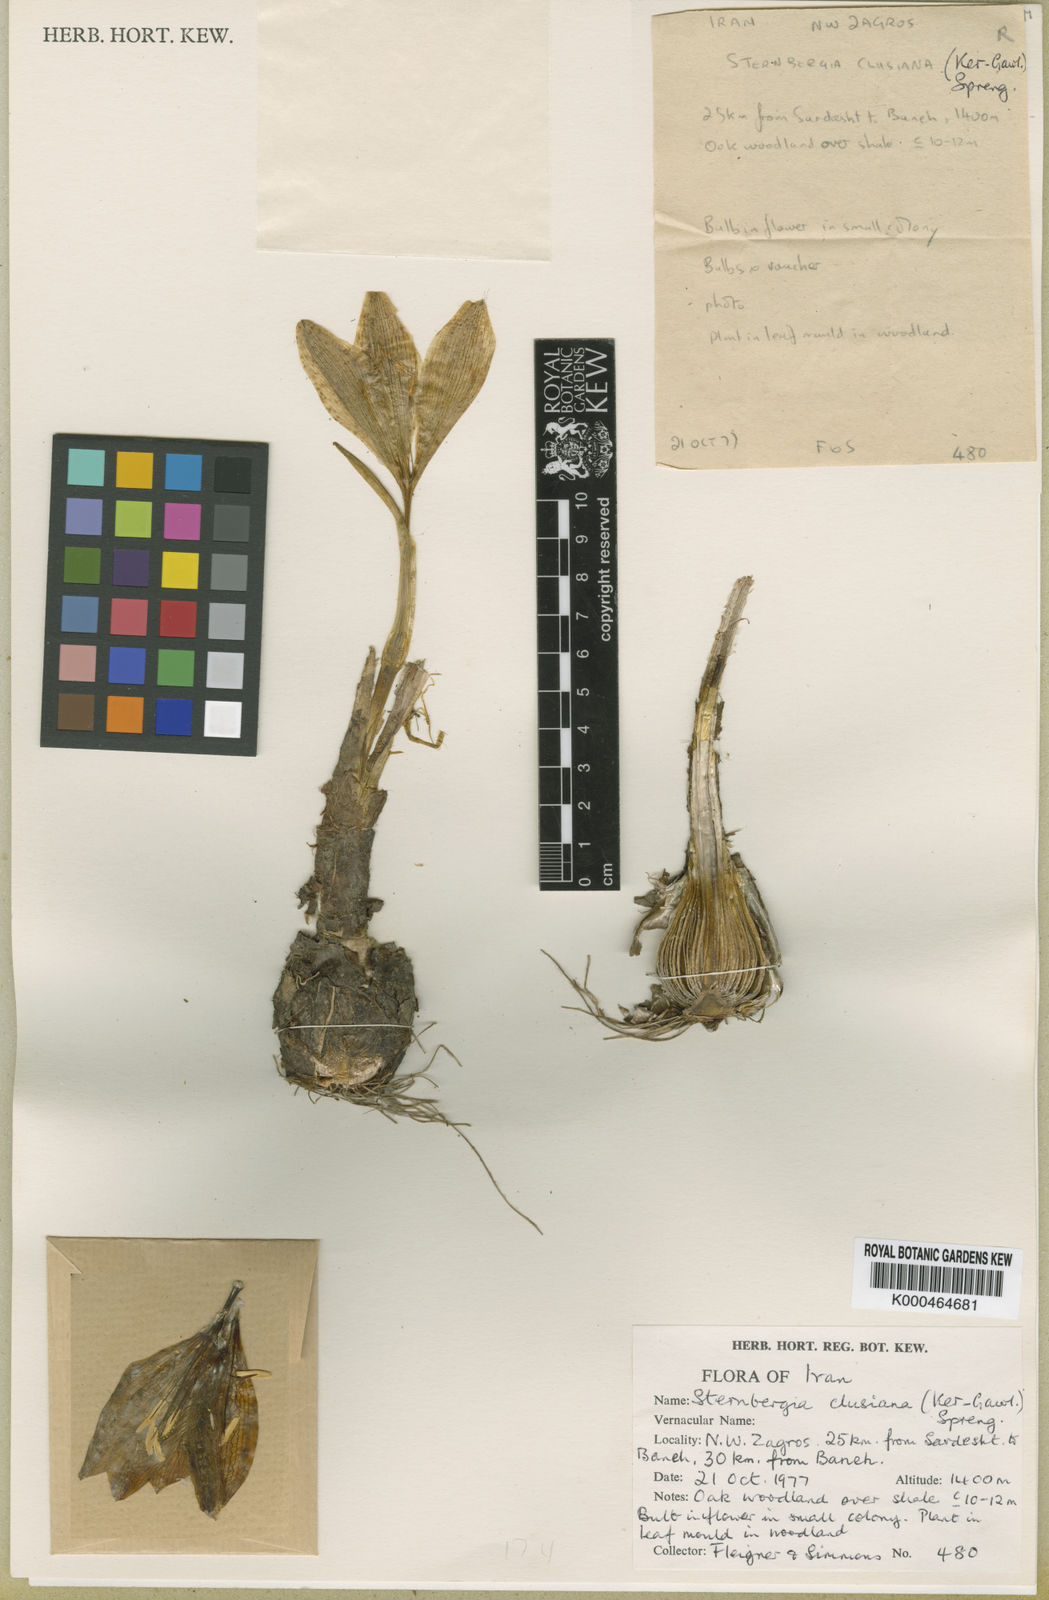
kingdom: Plantae
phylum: Tracheophyta
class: Liliopsida
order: Asparagales
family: Amaryllidaceae
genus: Sternbergia
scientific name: Sternbergia
